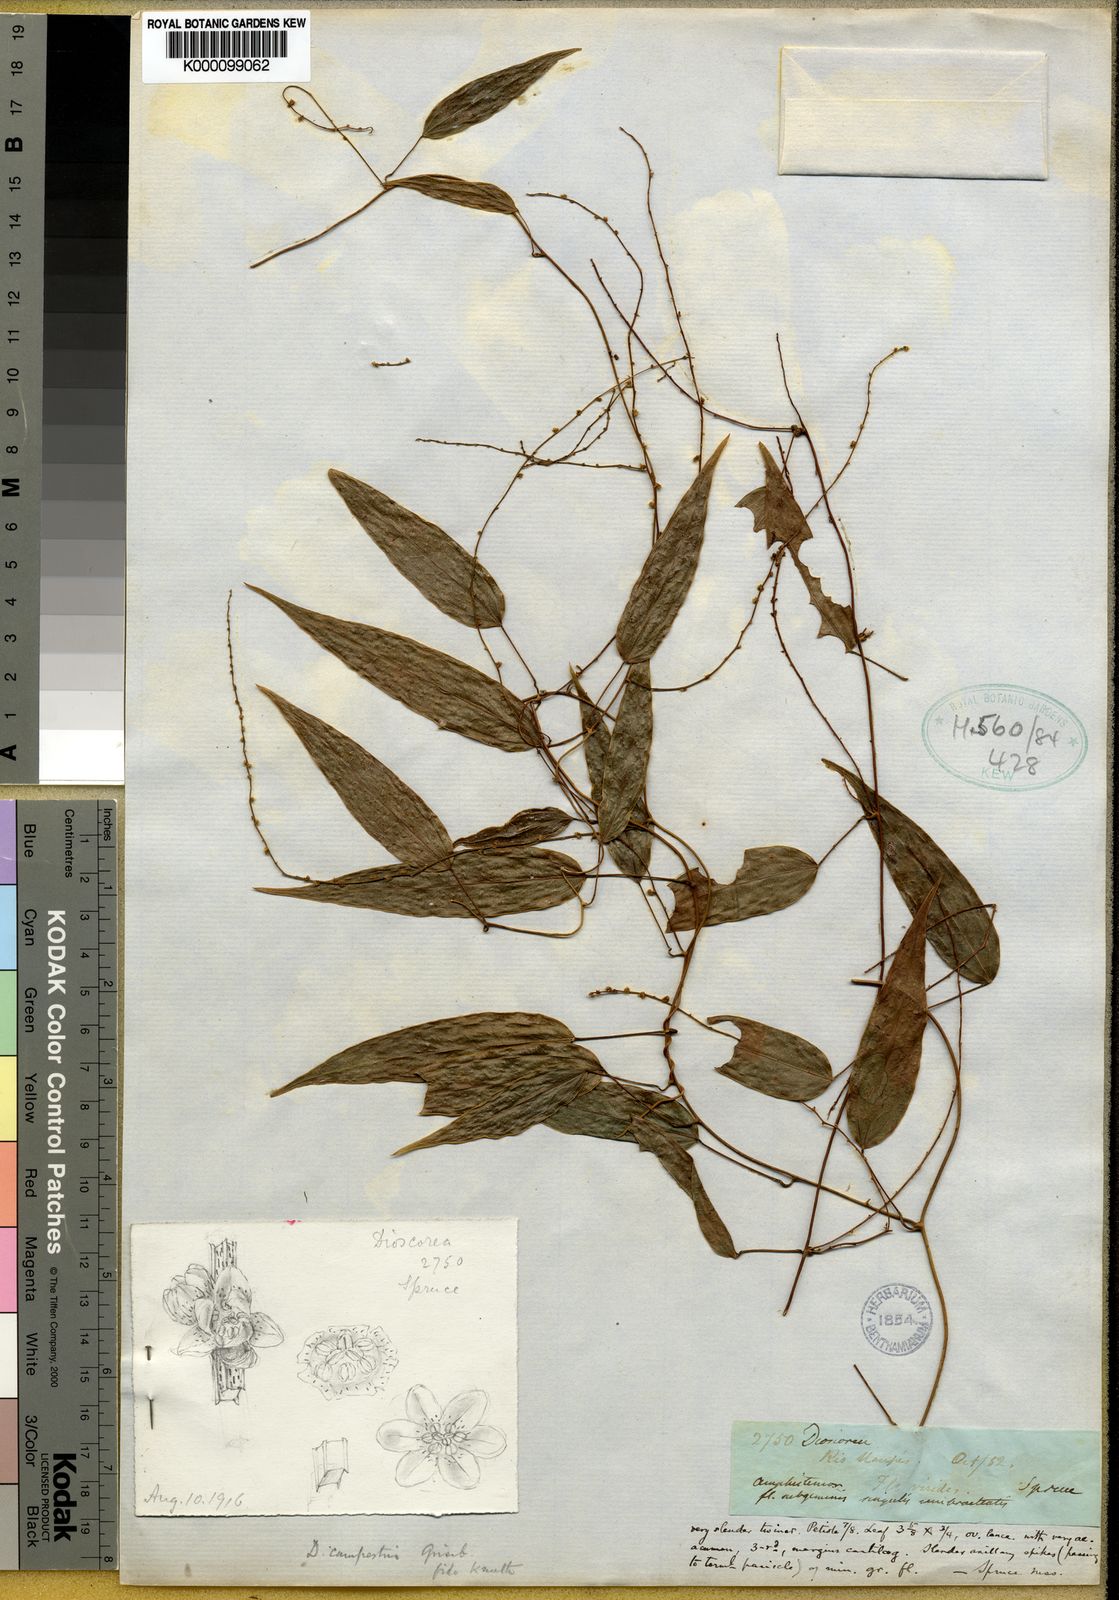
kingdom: Plantae
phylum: Tracheophyta
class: Liliopsida
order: Dioscoreales
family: Dioscoreaceae
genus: Dioscorea
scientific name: Dioscorea campestris
